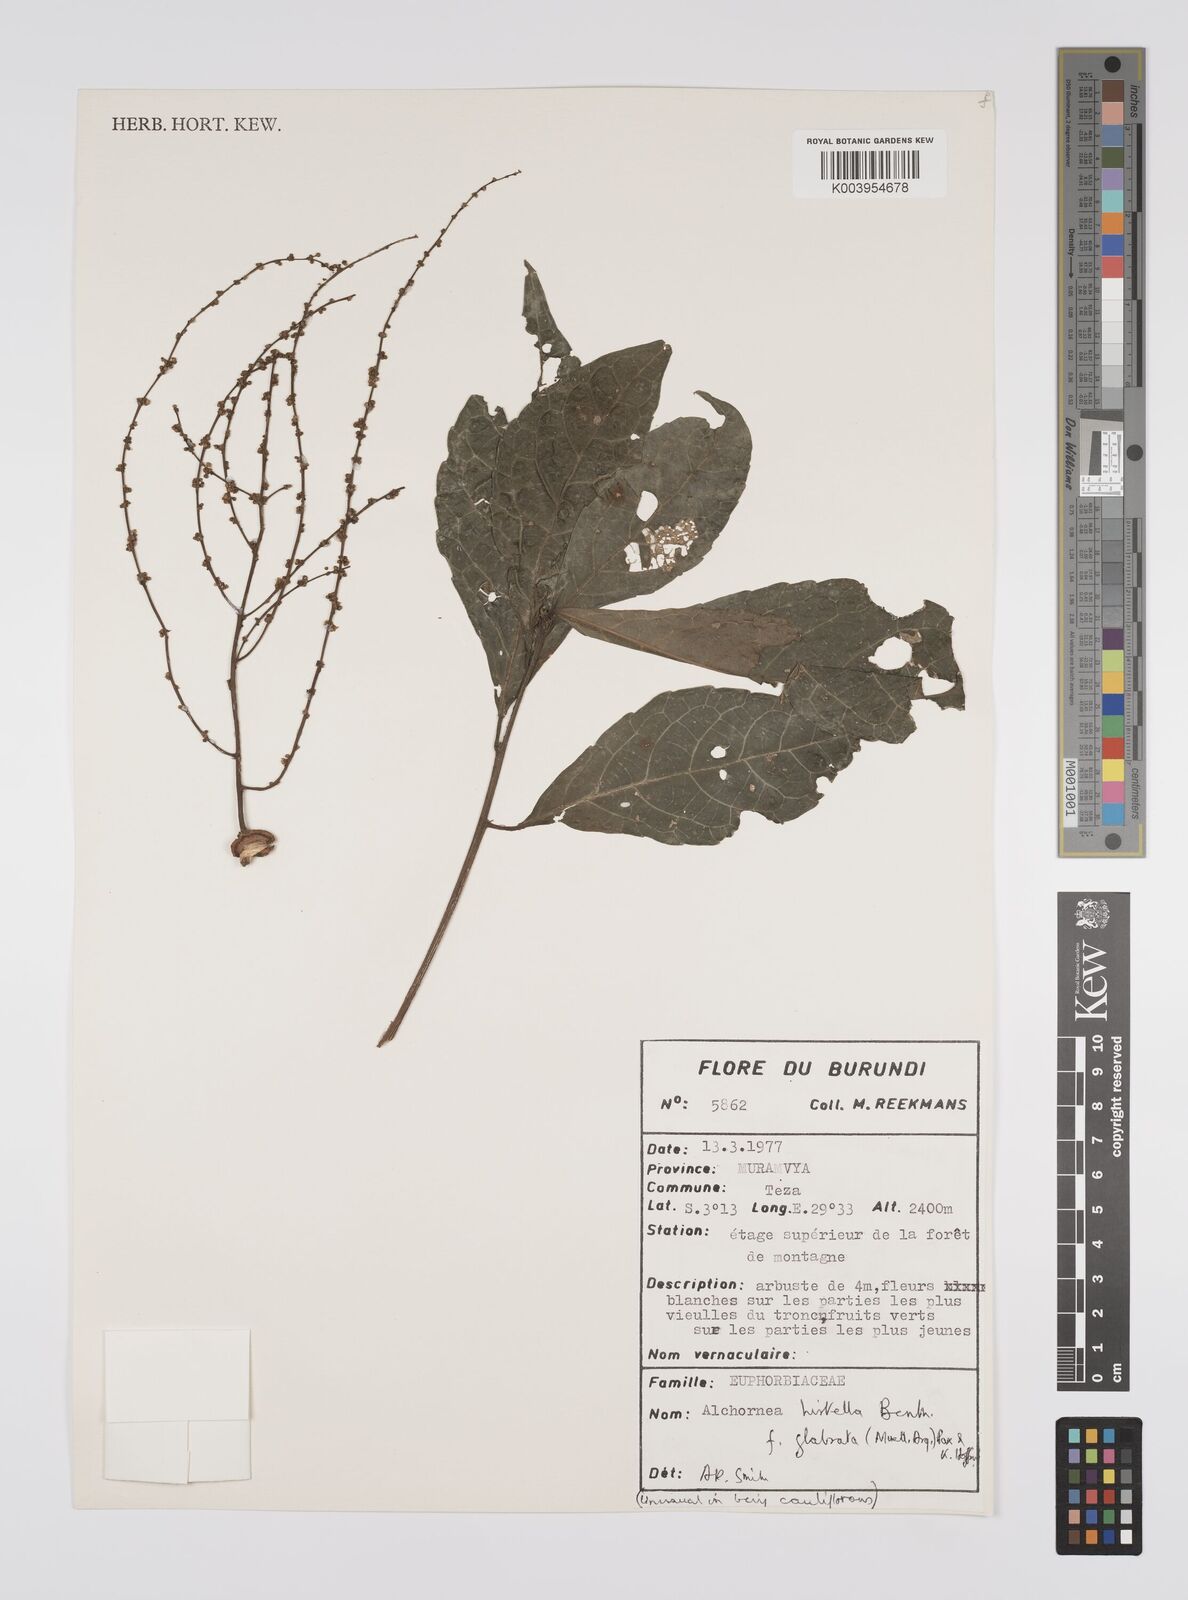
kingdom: Plantae
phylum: Tracheophyta
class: Magnoliopsida
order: Malpighiales
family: Euphorbiaceae
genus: Alchornea
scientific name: Alchornea hirtella
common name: Forest bead-string
